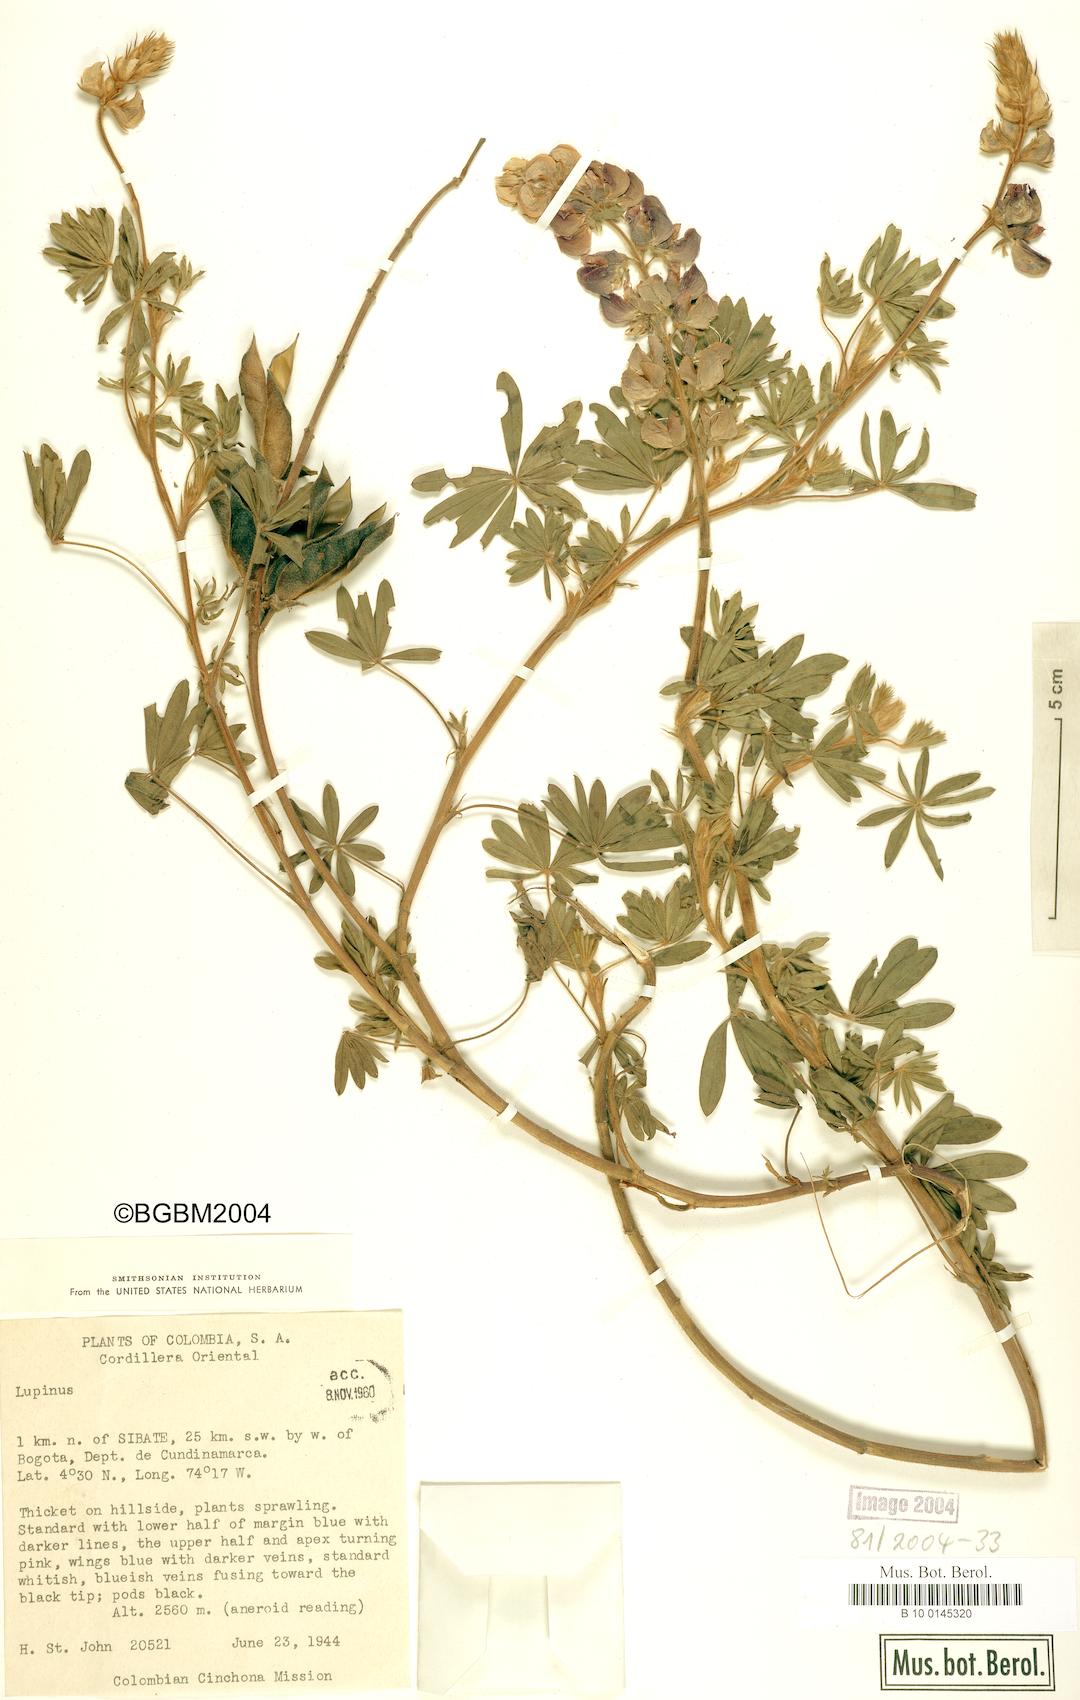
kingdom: Plantae
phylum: Tracheophyta
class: Magnoliopsida
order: Fabales
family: Fabaceae
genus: Lupinus
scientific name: Lupinus
